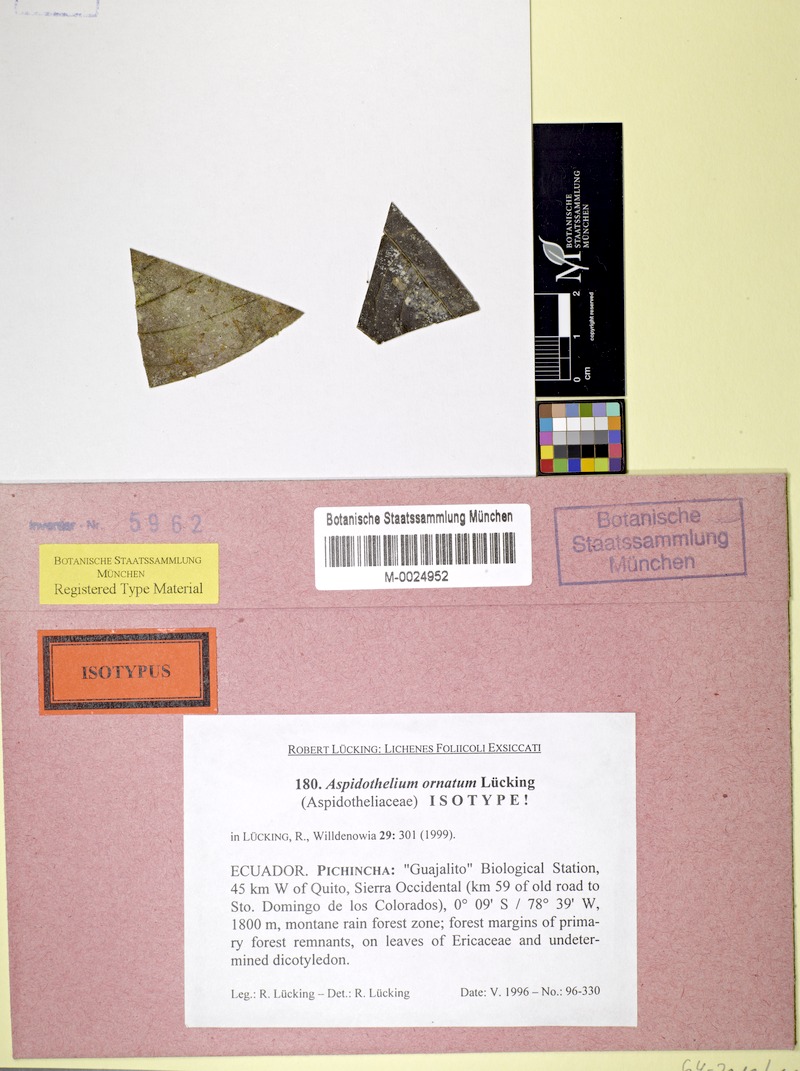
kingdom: Fungi
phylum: Ascomycota
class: Lecanoromycetes
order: Ostropales
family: Thelenellaceae
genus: Aspidothelium
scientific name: Aspidothelium ornatum
